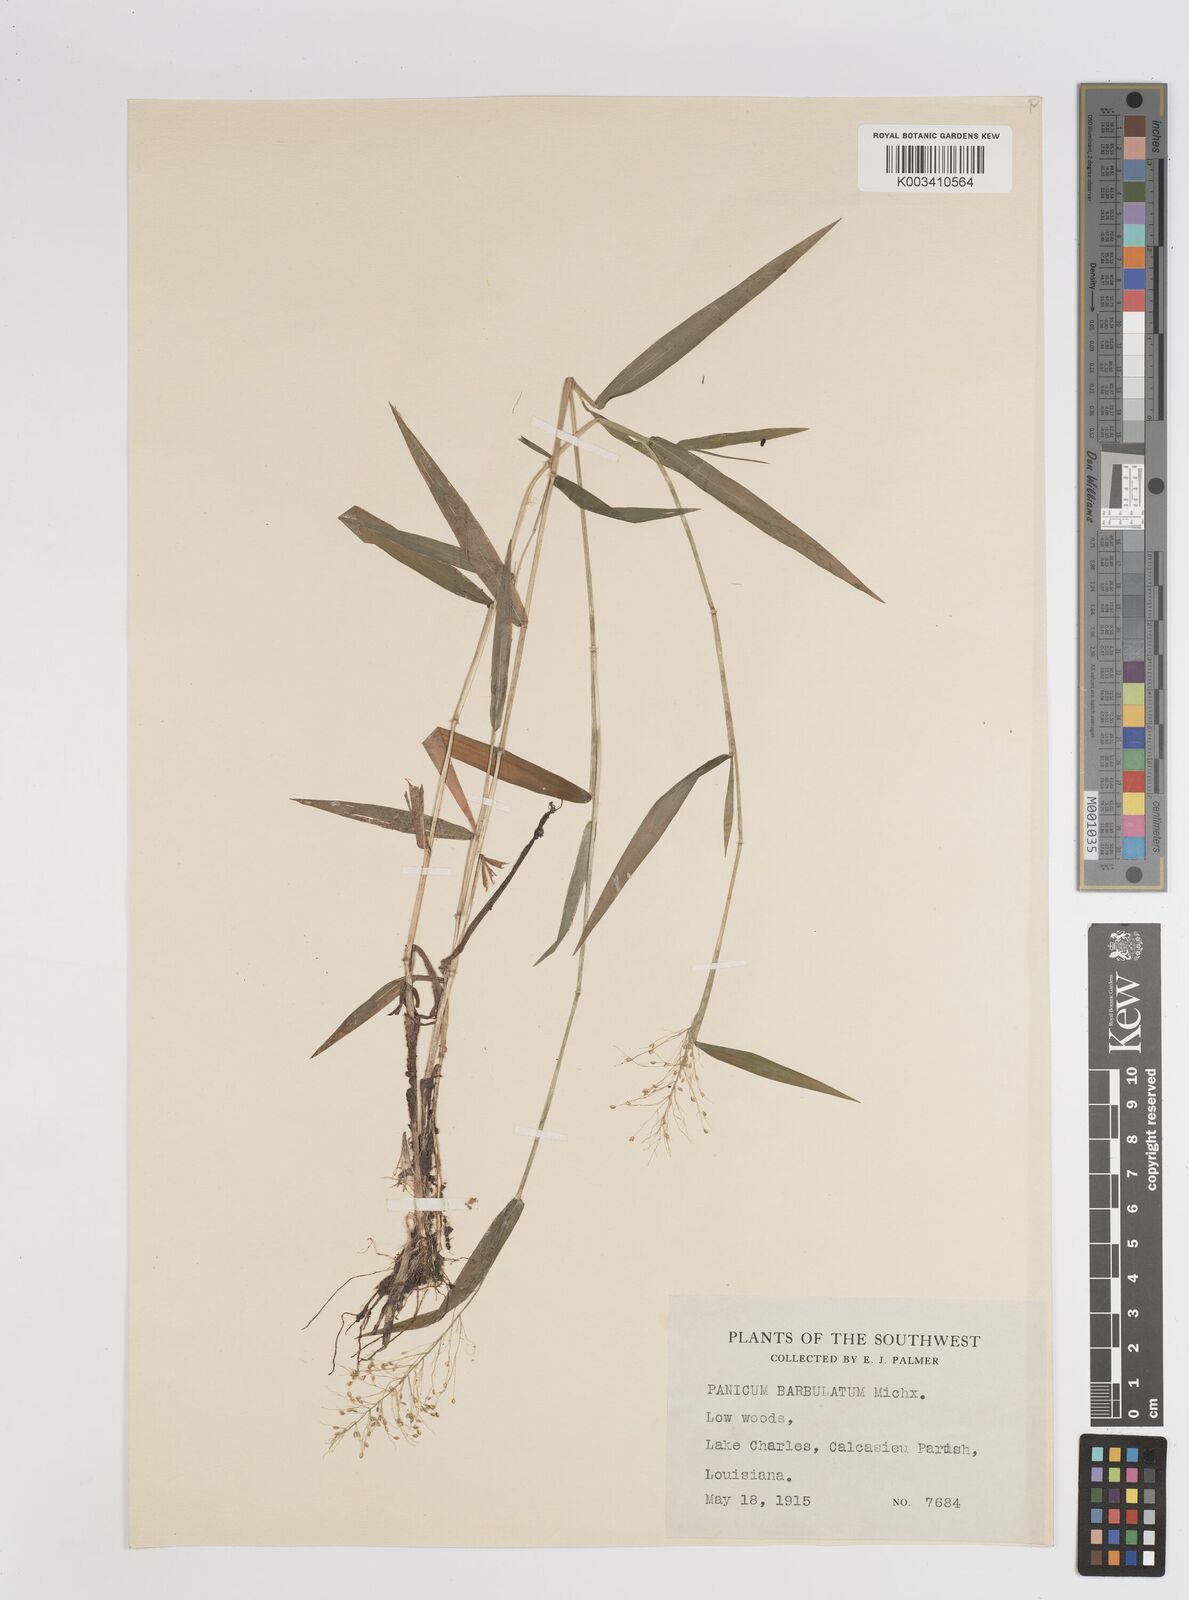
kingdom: Plantae
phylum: Tracheophyta
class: Liliopsida
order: Poales
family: Poaceae
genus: Dichanthelium
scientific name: Dichanthelium dichotomum
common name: Cypress panicgrass
